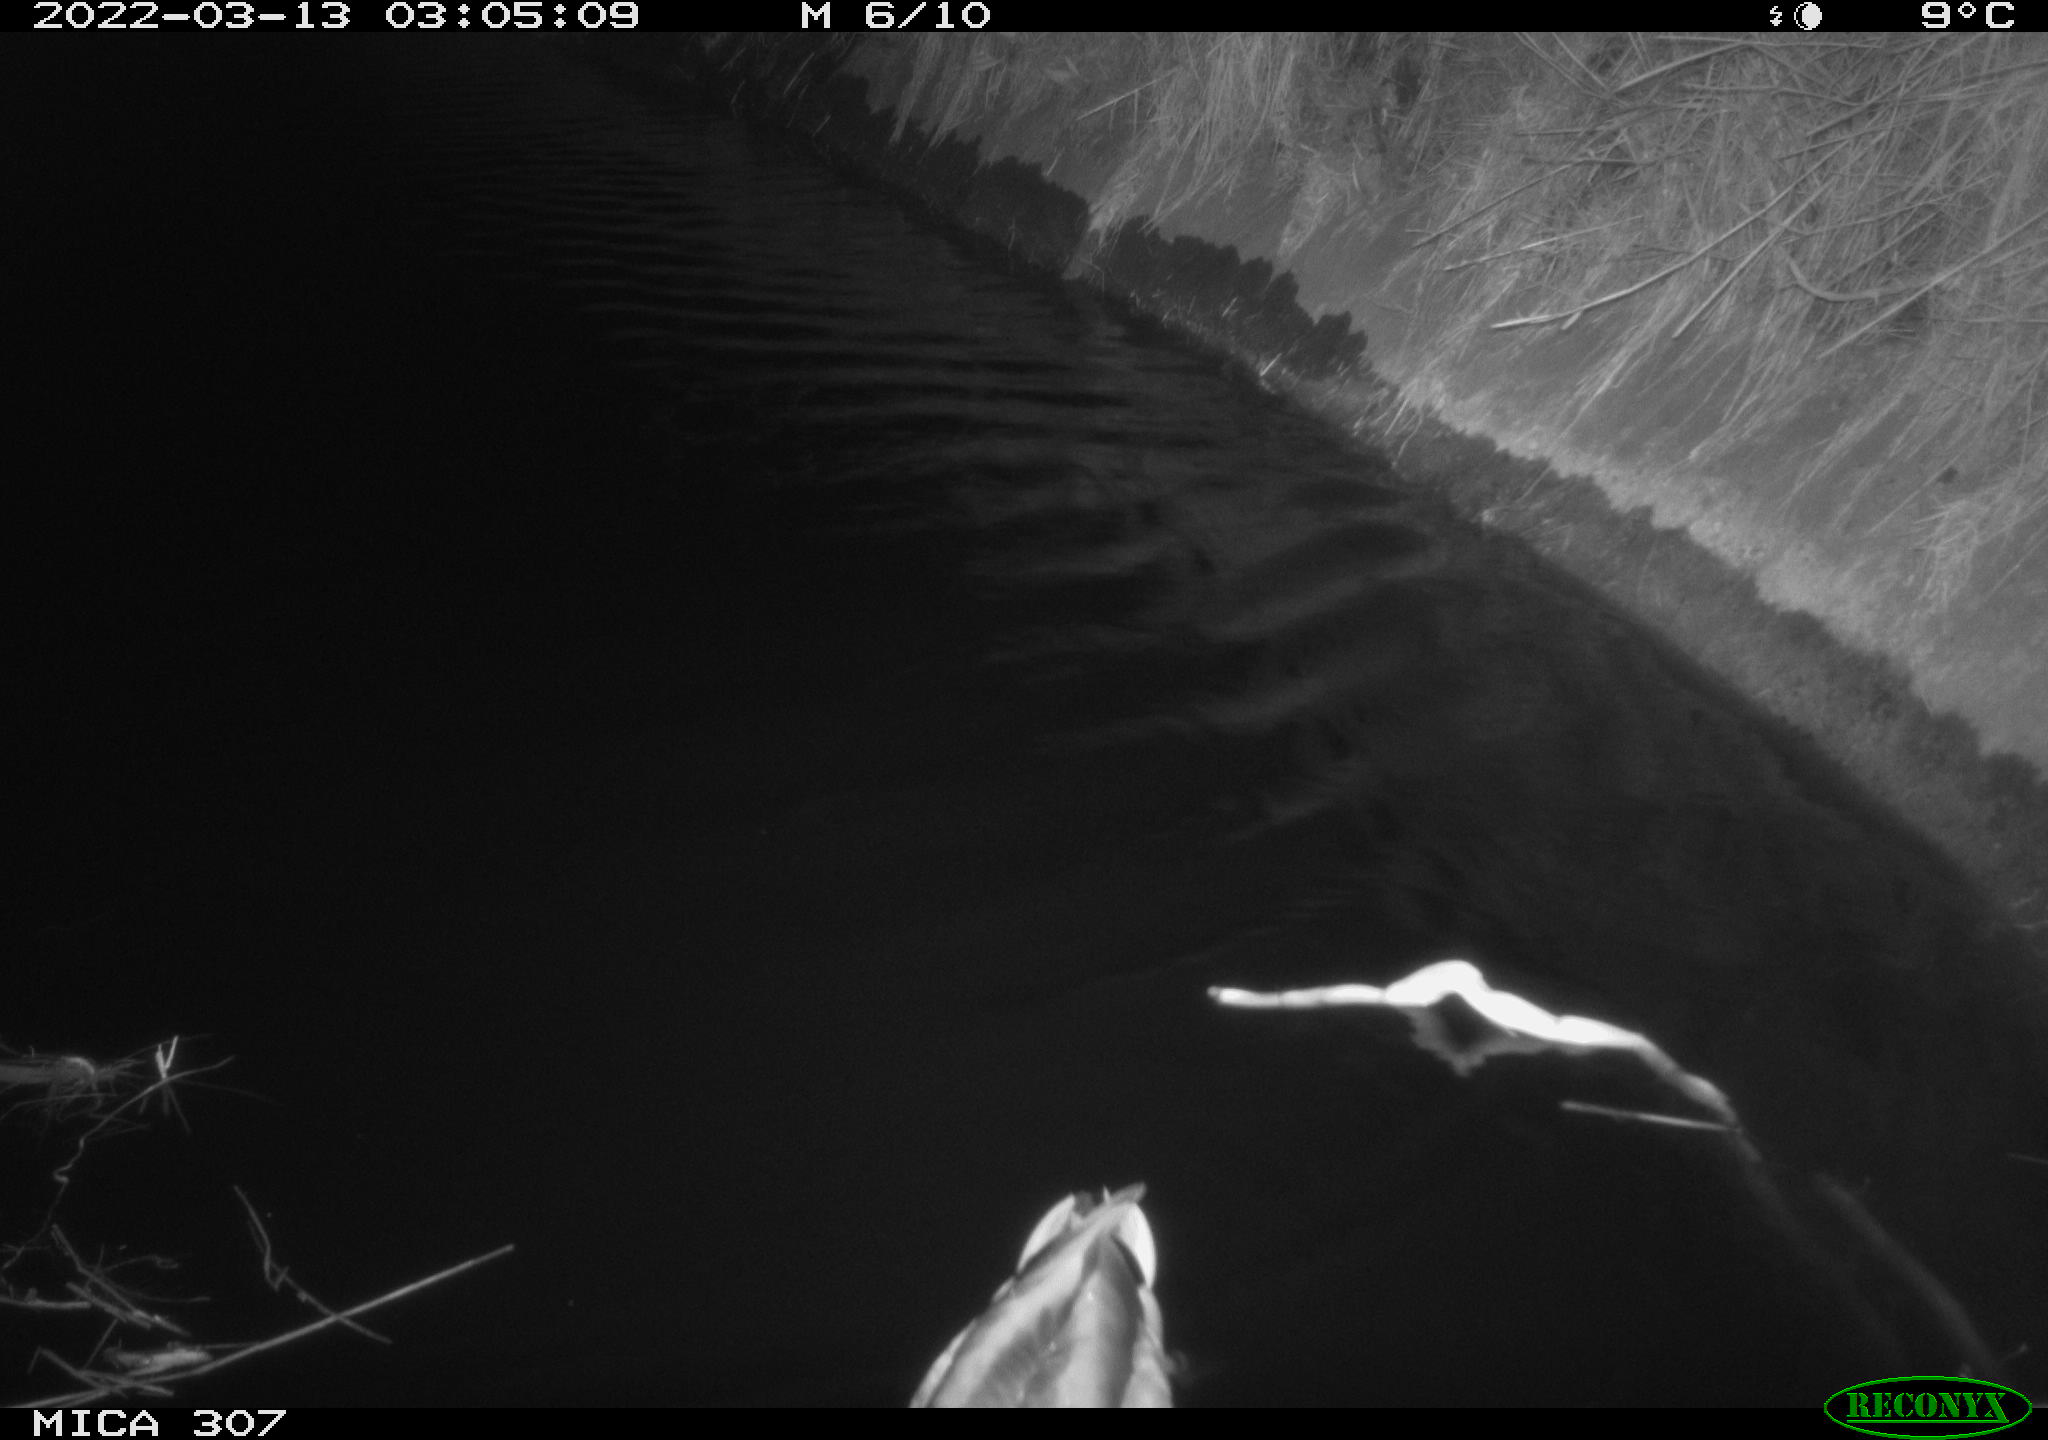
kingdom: Animalia
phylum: Chordata
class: Aves
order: Anseriformes
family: Anatidae
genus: Anas
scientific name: Anas platyrhynchos
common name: Mallard
